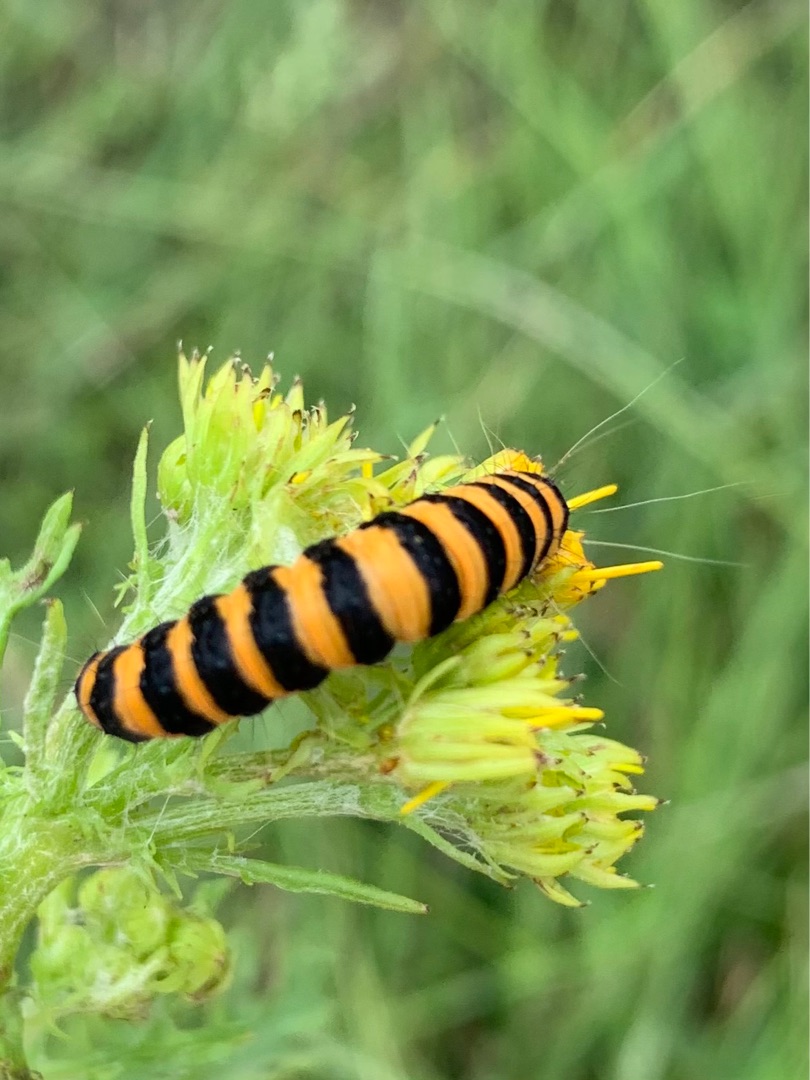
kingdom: Animalia
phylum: Arthropoda
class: Insecta
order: Lepidoptera
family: Erebidae
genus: Tyria
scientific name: Tyria jacobaeae
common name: Blodplet
